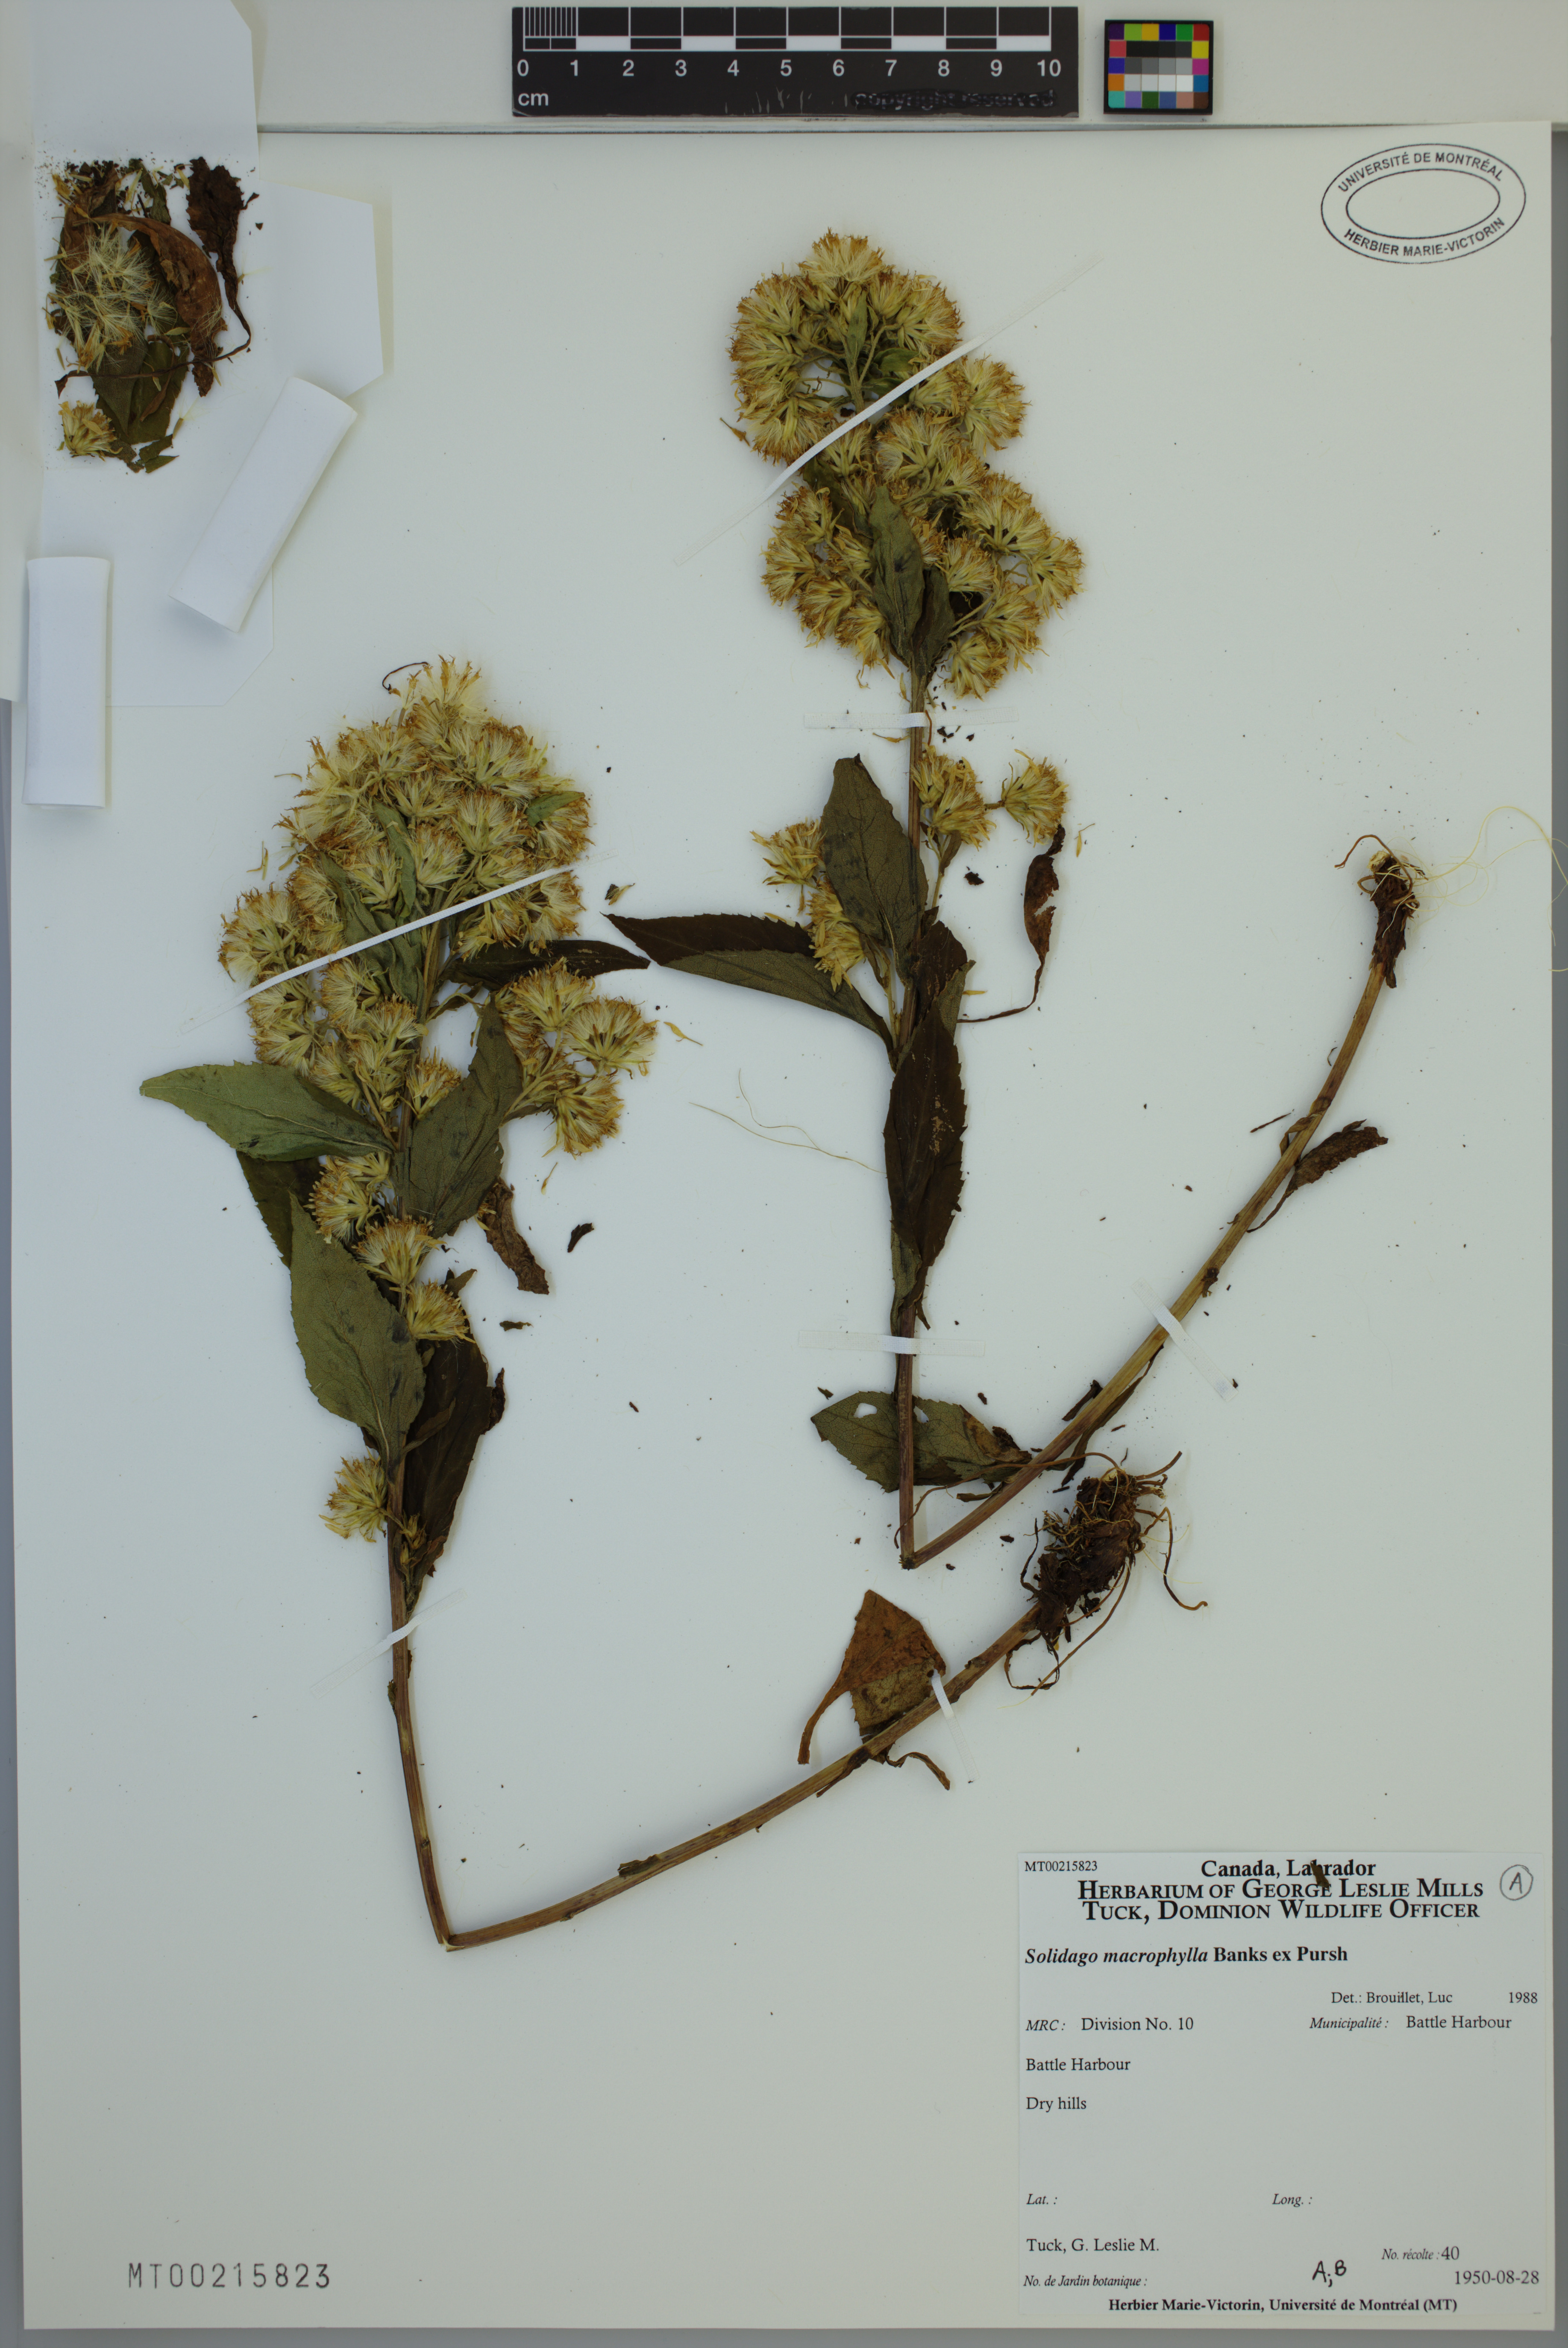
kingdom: Plantae
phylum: Tracheophyta
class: Magnoliopsida
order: Asterales
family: Asteraceae
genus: Solidago
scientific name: Solidago macrophylla
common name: Large-leaved goldenrod
